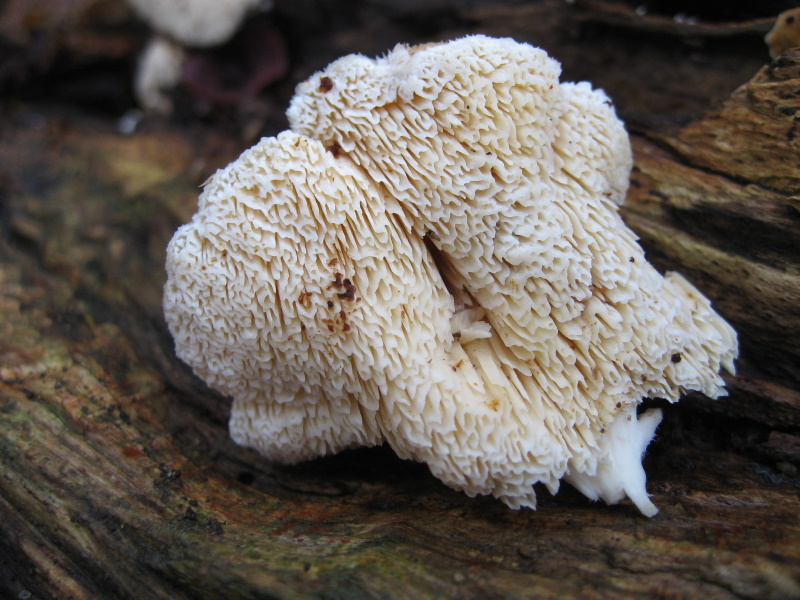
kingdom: Fungi
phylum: Basidiomycota
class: Agaricomycetes
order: Polyporales
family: Cerrenaceae
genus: Pseudospongipellis
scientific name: Pseudospongipellis delectans
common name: labyrint-skumporesvamp
